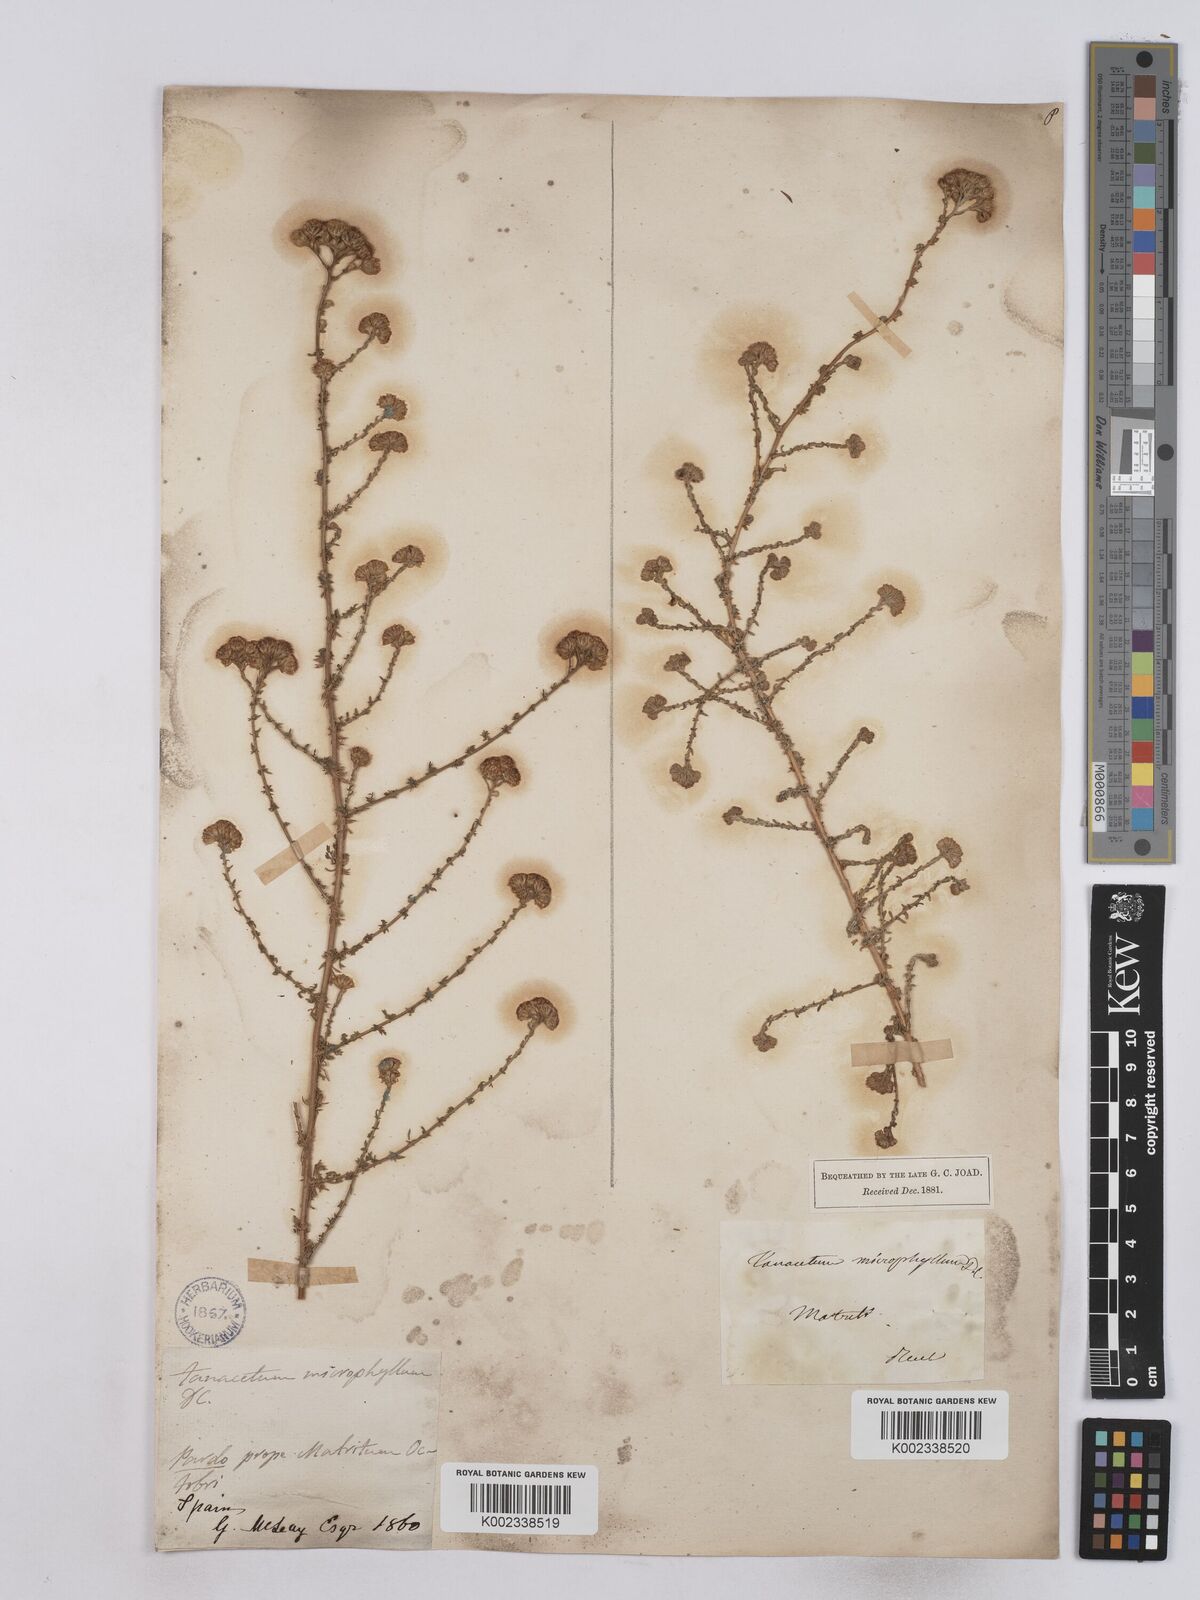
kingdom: Plantae
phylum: Tracheophyta
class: Magnoliopsida
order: Asterales
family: Asteraceae
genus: Vogtia
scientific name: Vogtia microphylla
